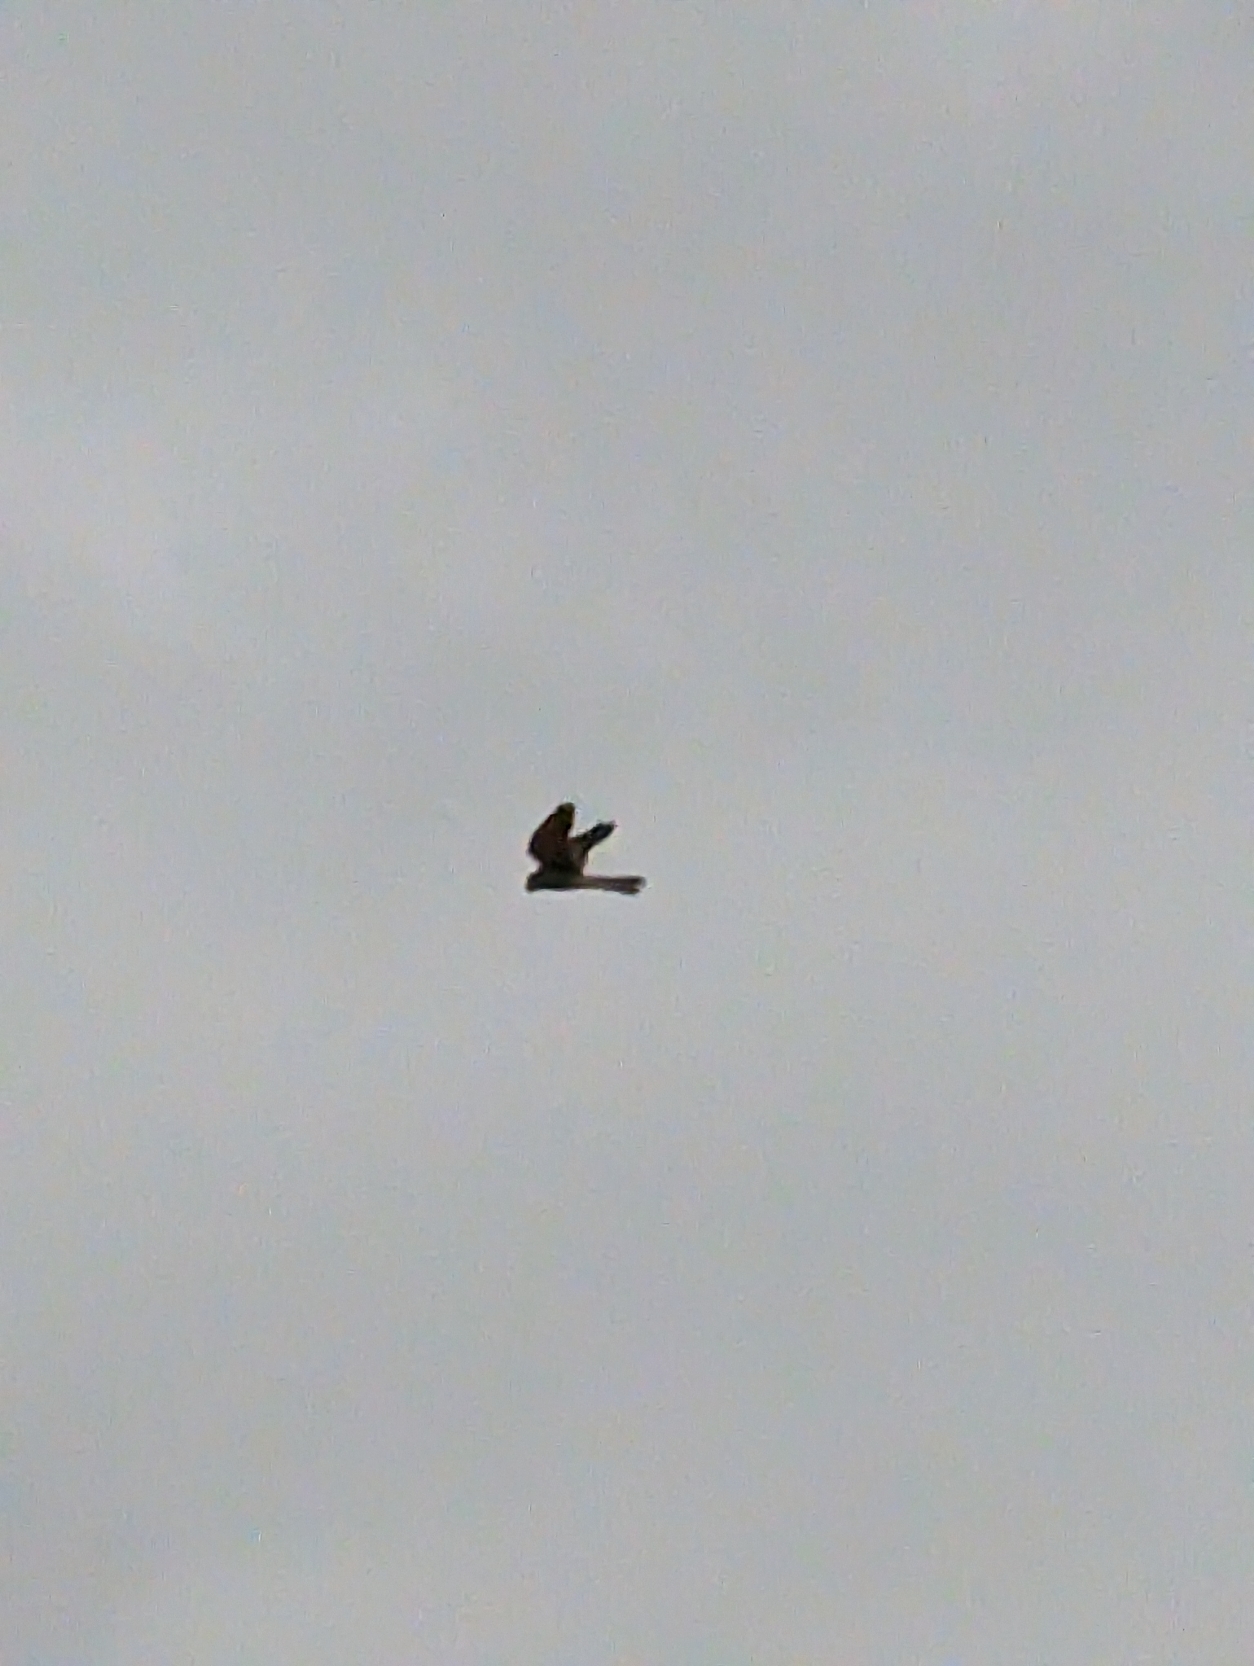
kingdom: Animalia
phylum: Chordata
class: Aves
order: Falconiformes
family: Falconidae
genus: Falco
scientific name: Falco tinnunculus
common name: Tårnfalk
